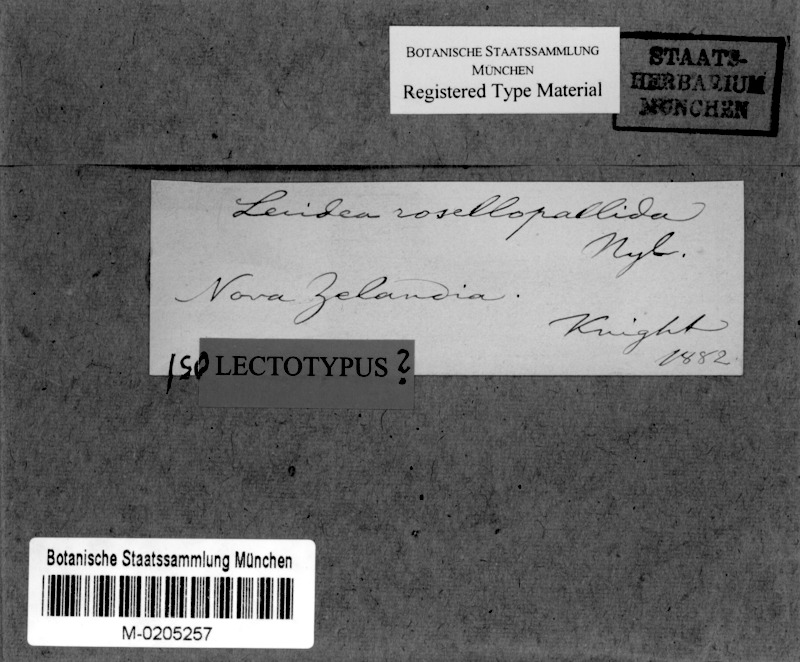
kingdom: Fungi
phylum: Ascomycota
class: Lecanoromycetes
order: Lecanorales
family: Ramalinaceae
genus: Bacidia
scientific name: Bacidia
